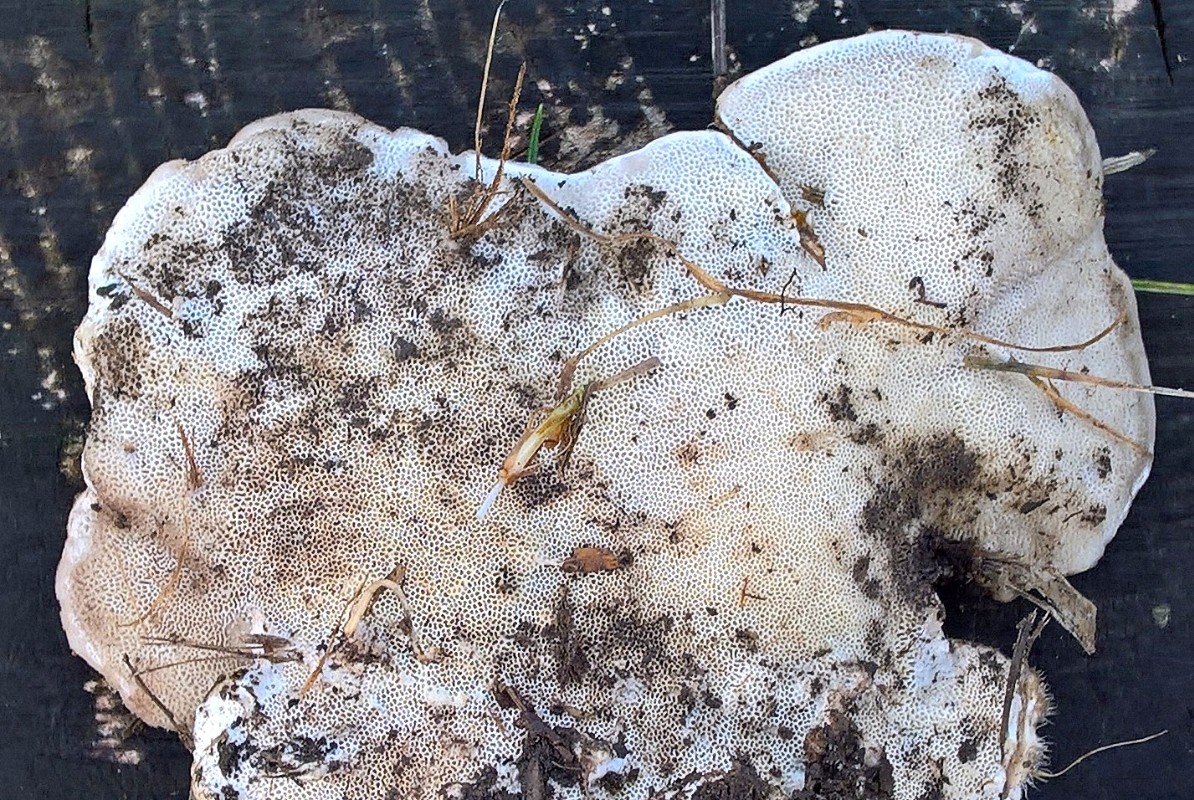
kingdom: Fungi
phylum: Basidiomycota
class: Agaricomycetes
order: Polyporales
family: Polyporaceae
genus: Trametes
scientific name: Trametes hirsuta
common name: håret læderporesvamp
